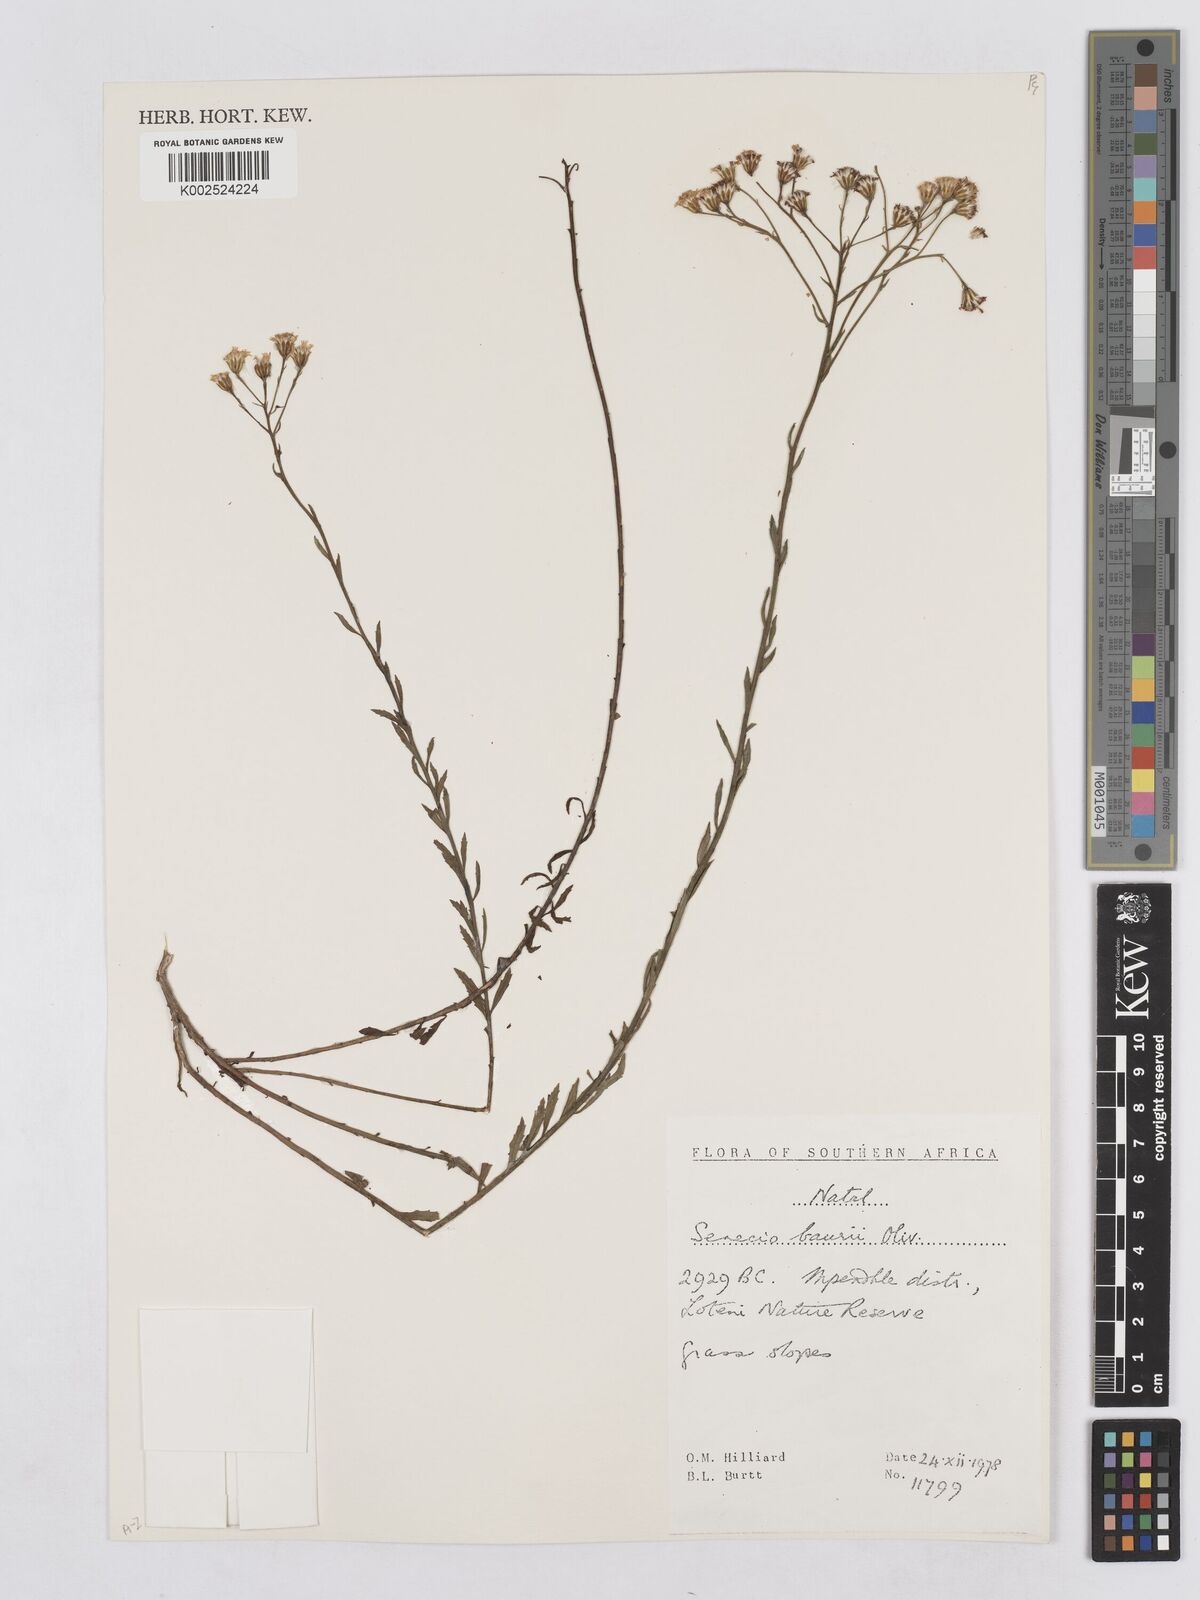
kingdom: Plantae
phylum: Tracheophyta
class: Magnoliopsida
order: Asterales
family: Asteraceae
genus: Senecio
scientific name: Senecio baurii
